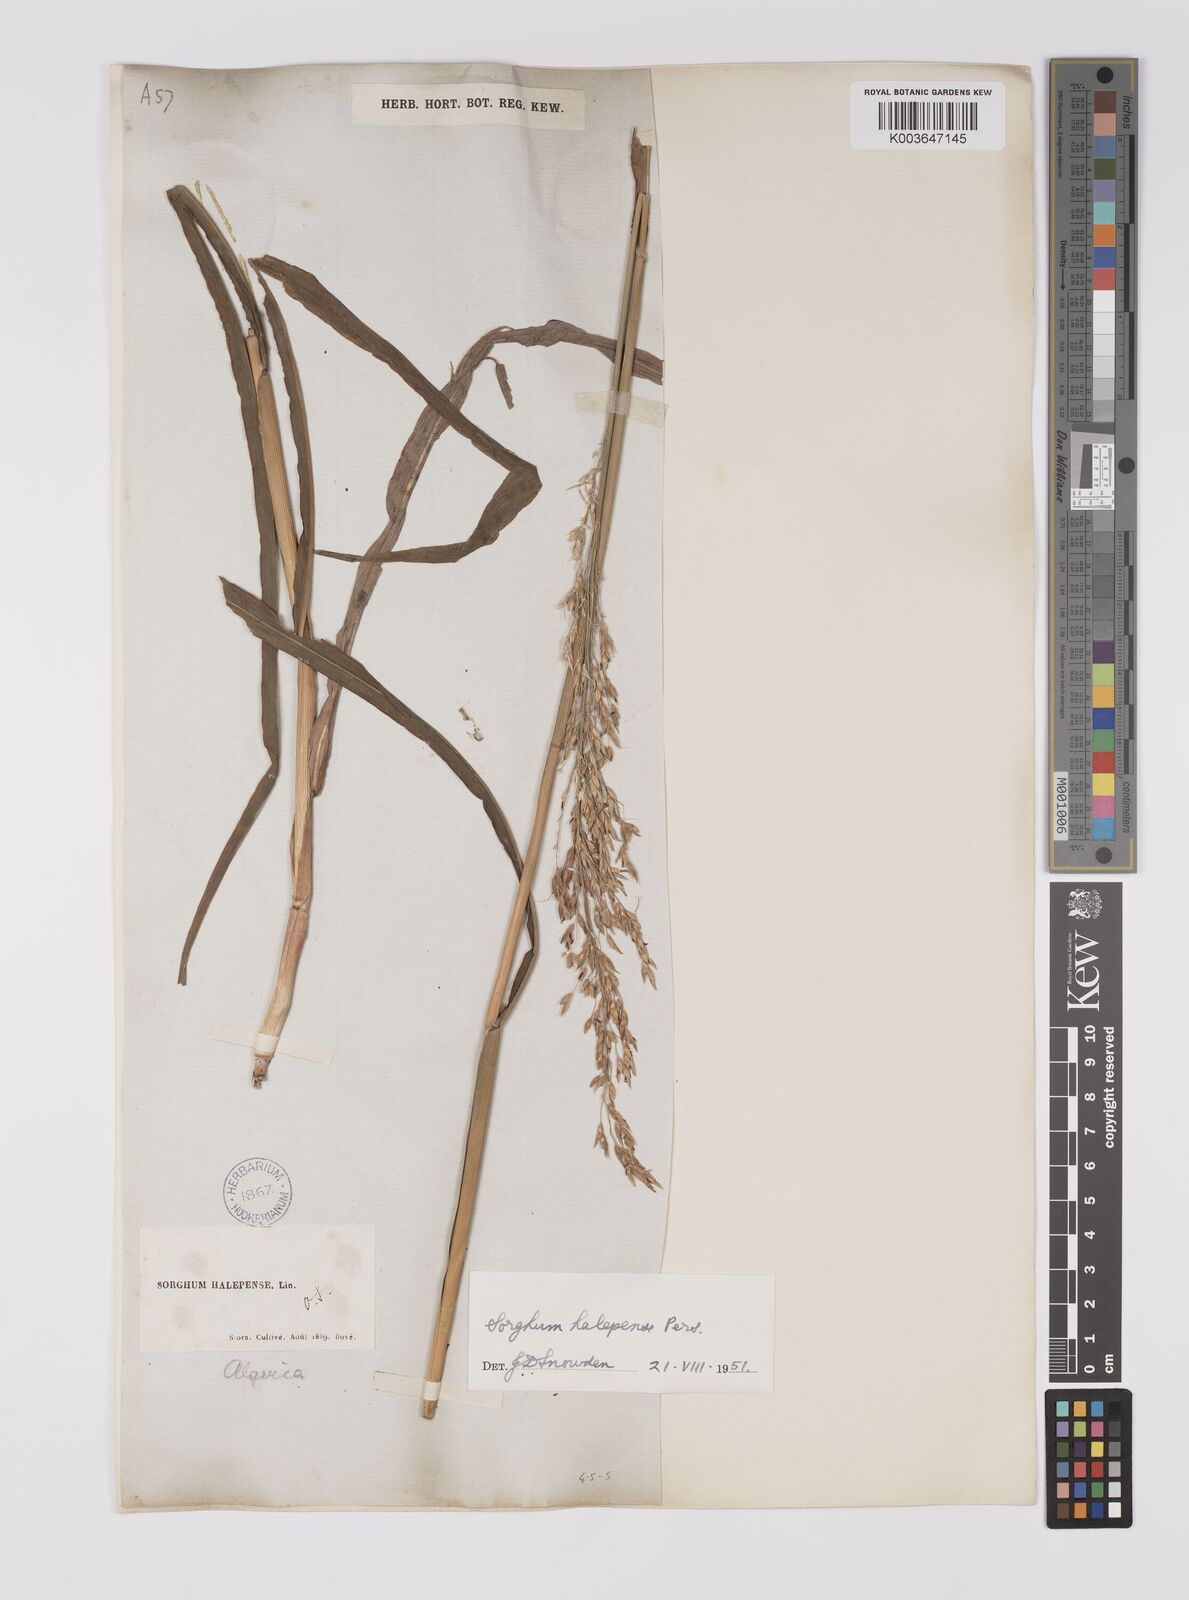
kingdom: Plantae
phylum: Tracheophyta
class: Liliopsida
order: Poales
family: Poaceae
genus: Sorghum
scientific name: Sorghum halepense
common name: Johnson-grass
